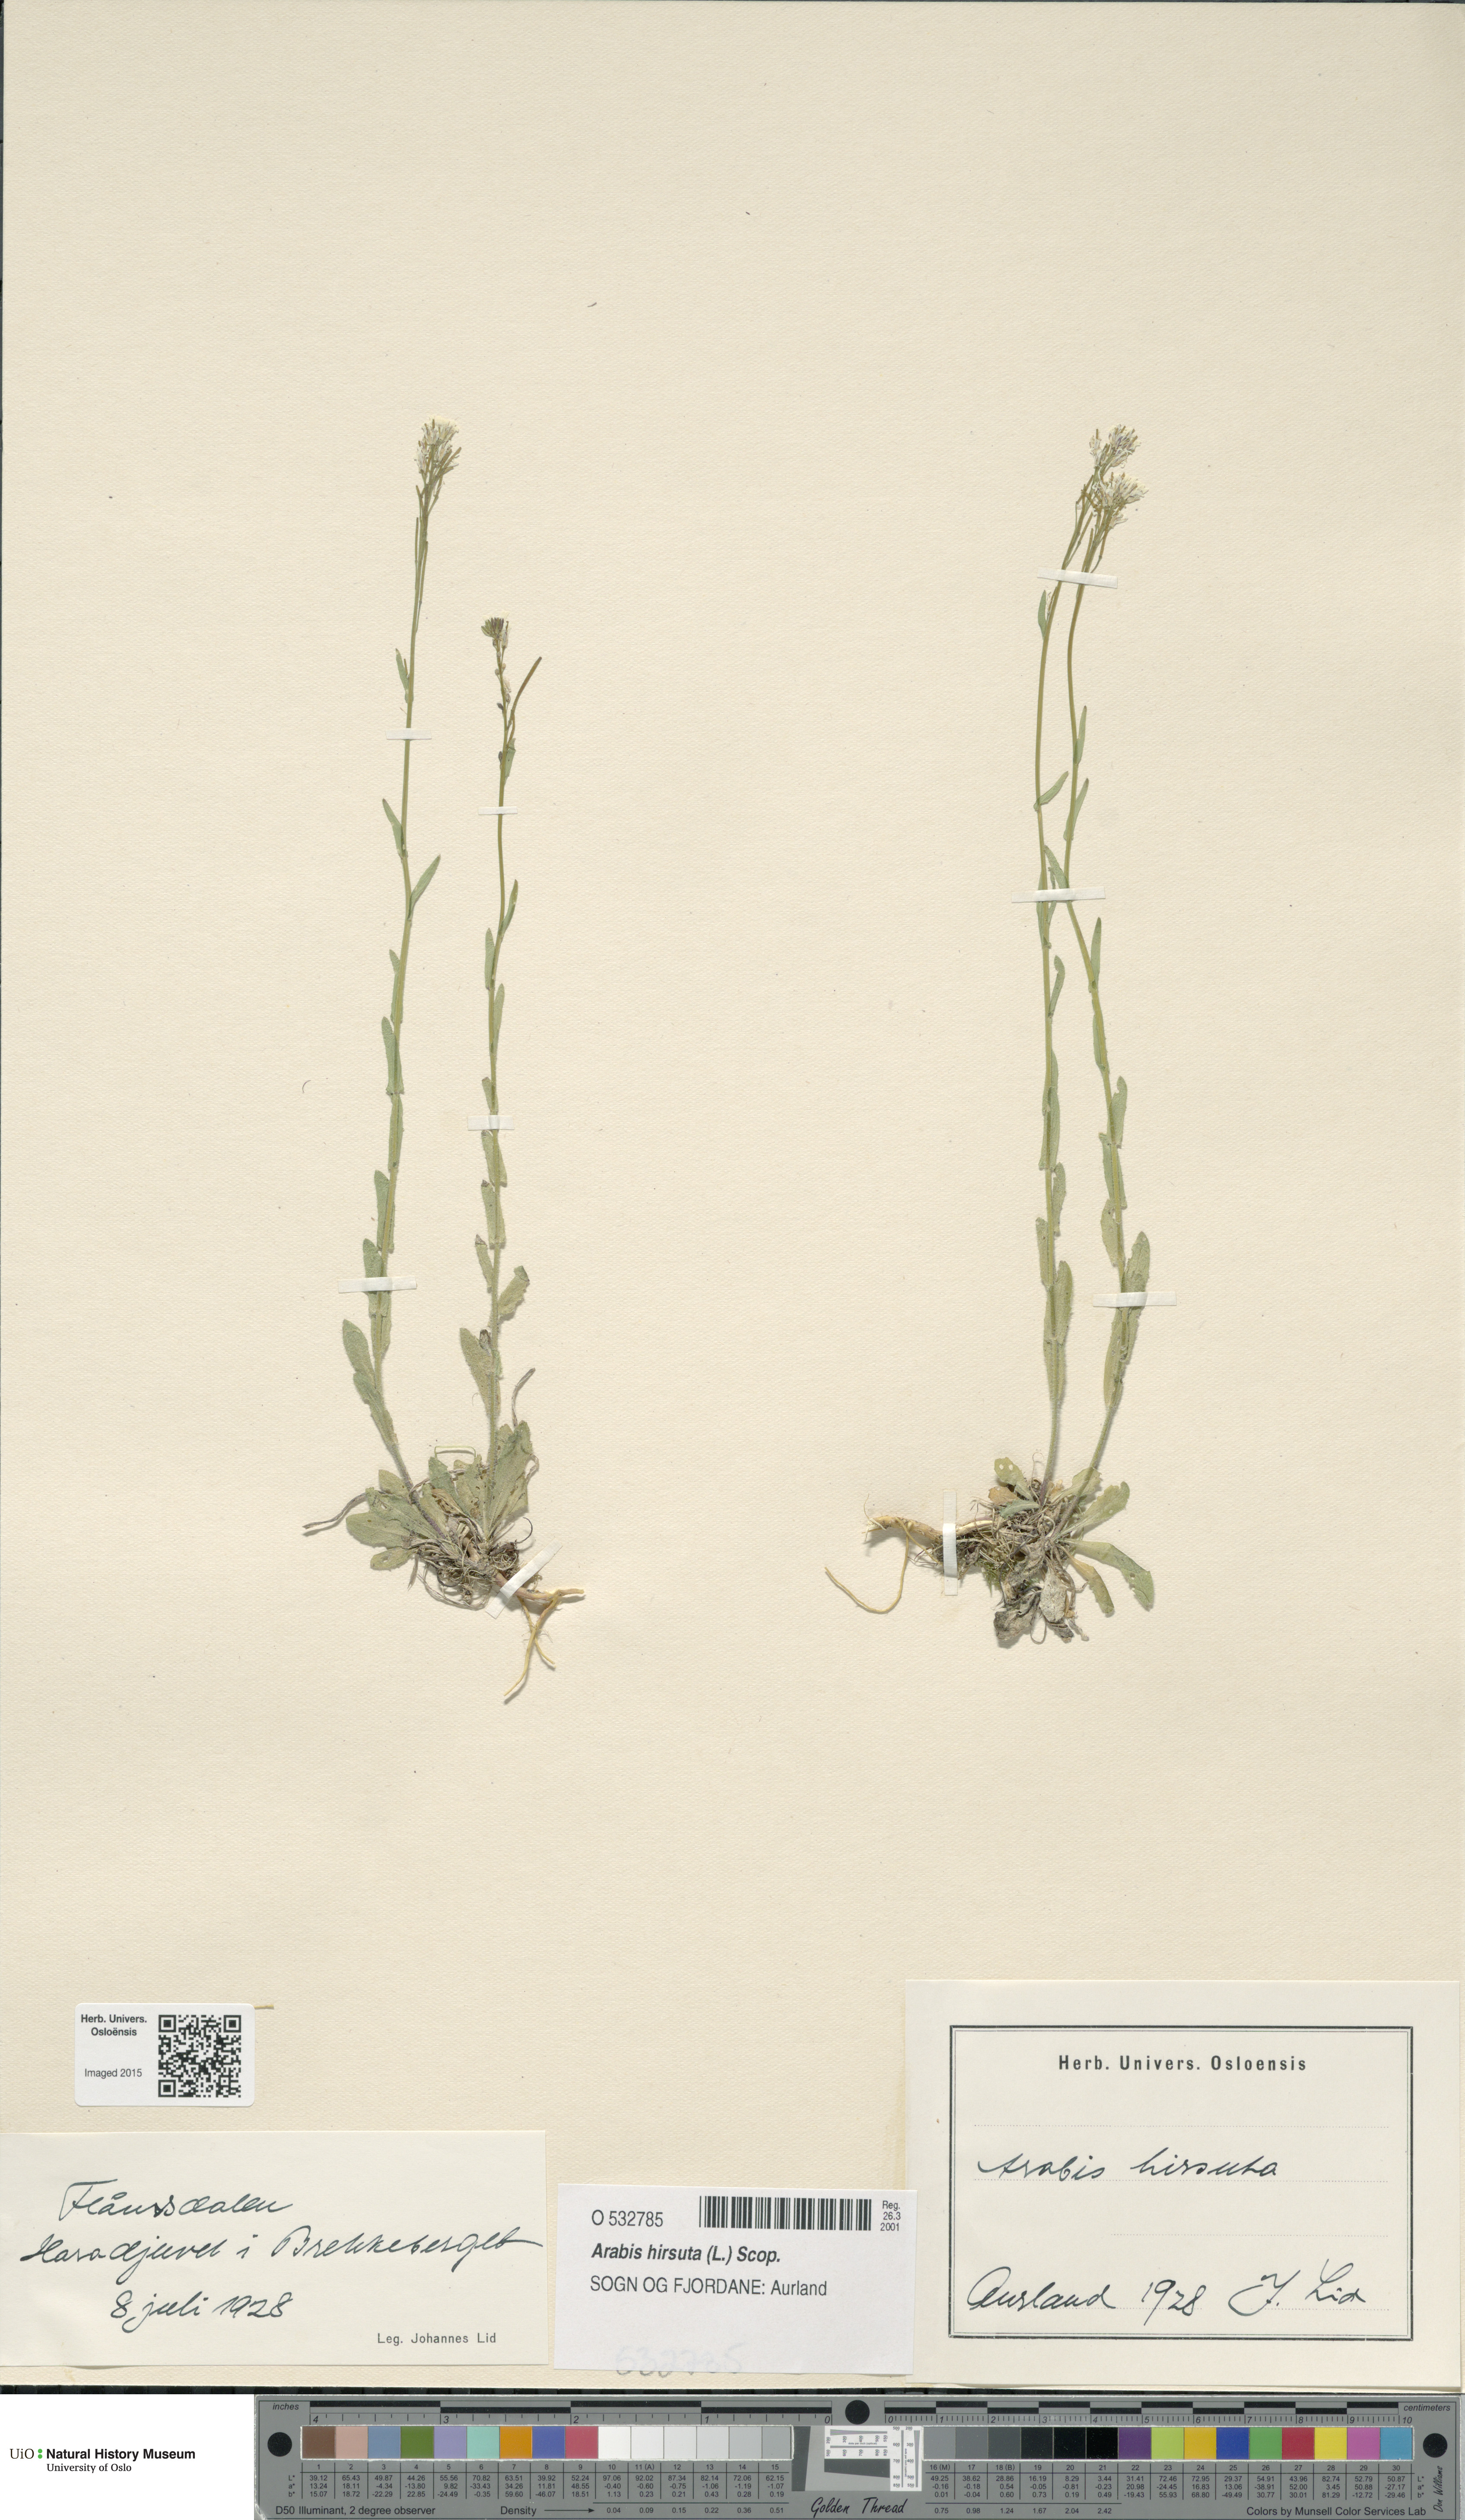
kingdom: Plantae
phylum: Tracheophyta
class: Magnoliopsida
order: Brassicales
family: Brassicaceae
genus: Arabis
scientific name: Arabis hirsuta
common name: Hairy rock-cress
